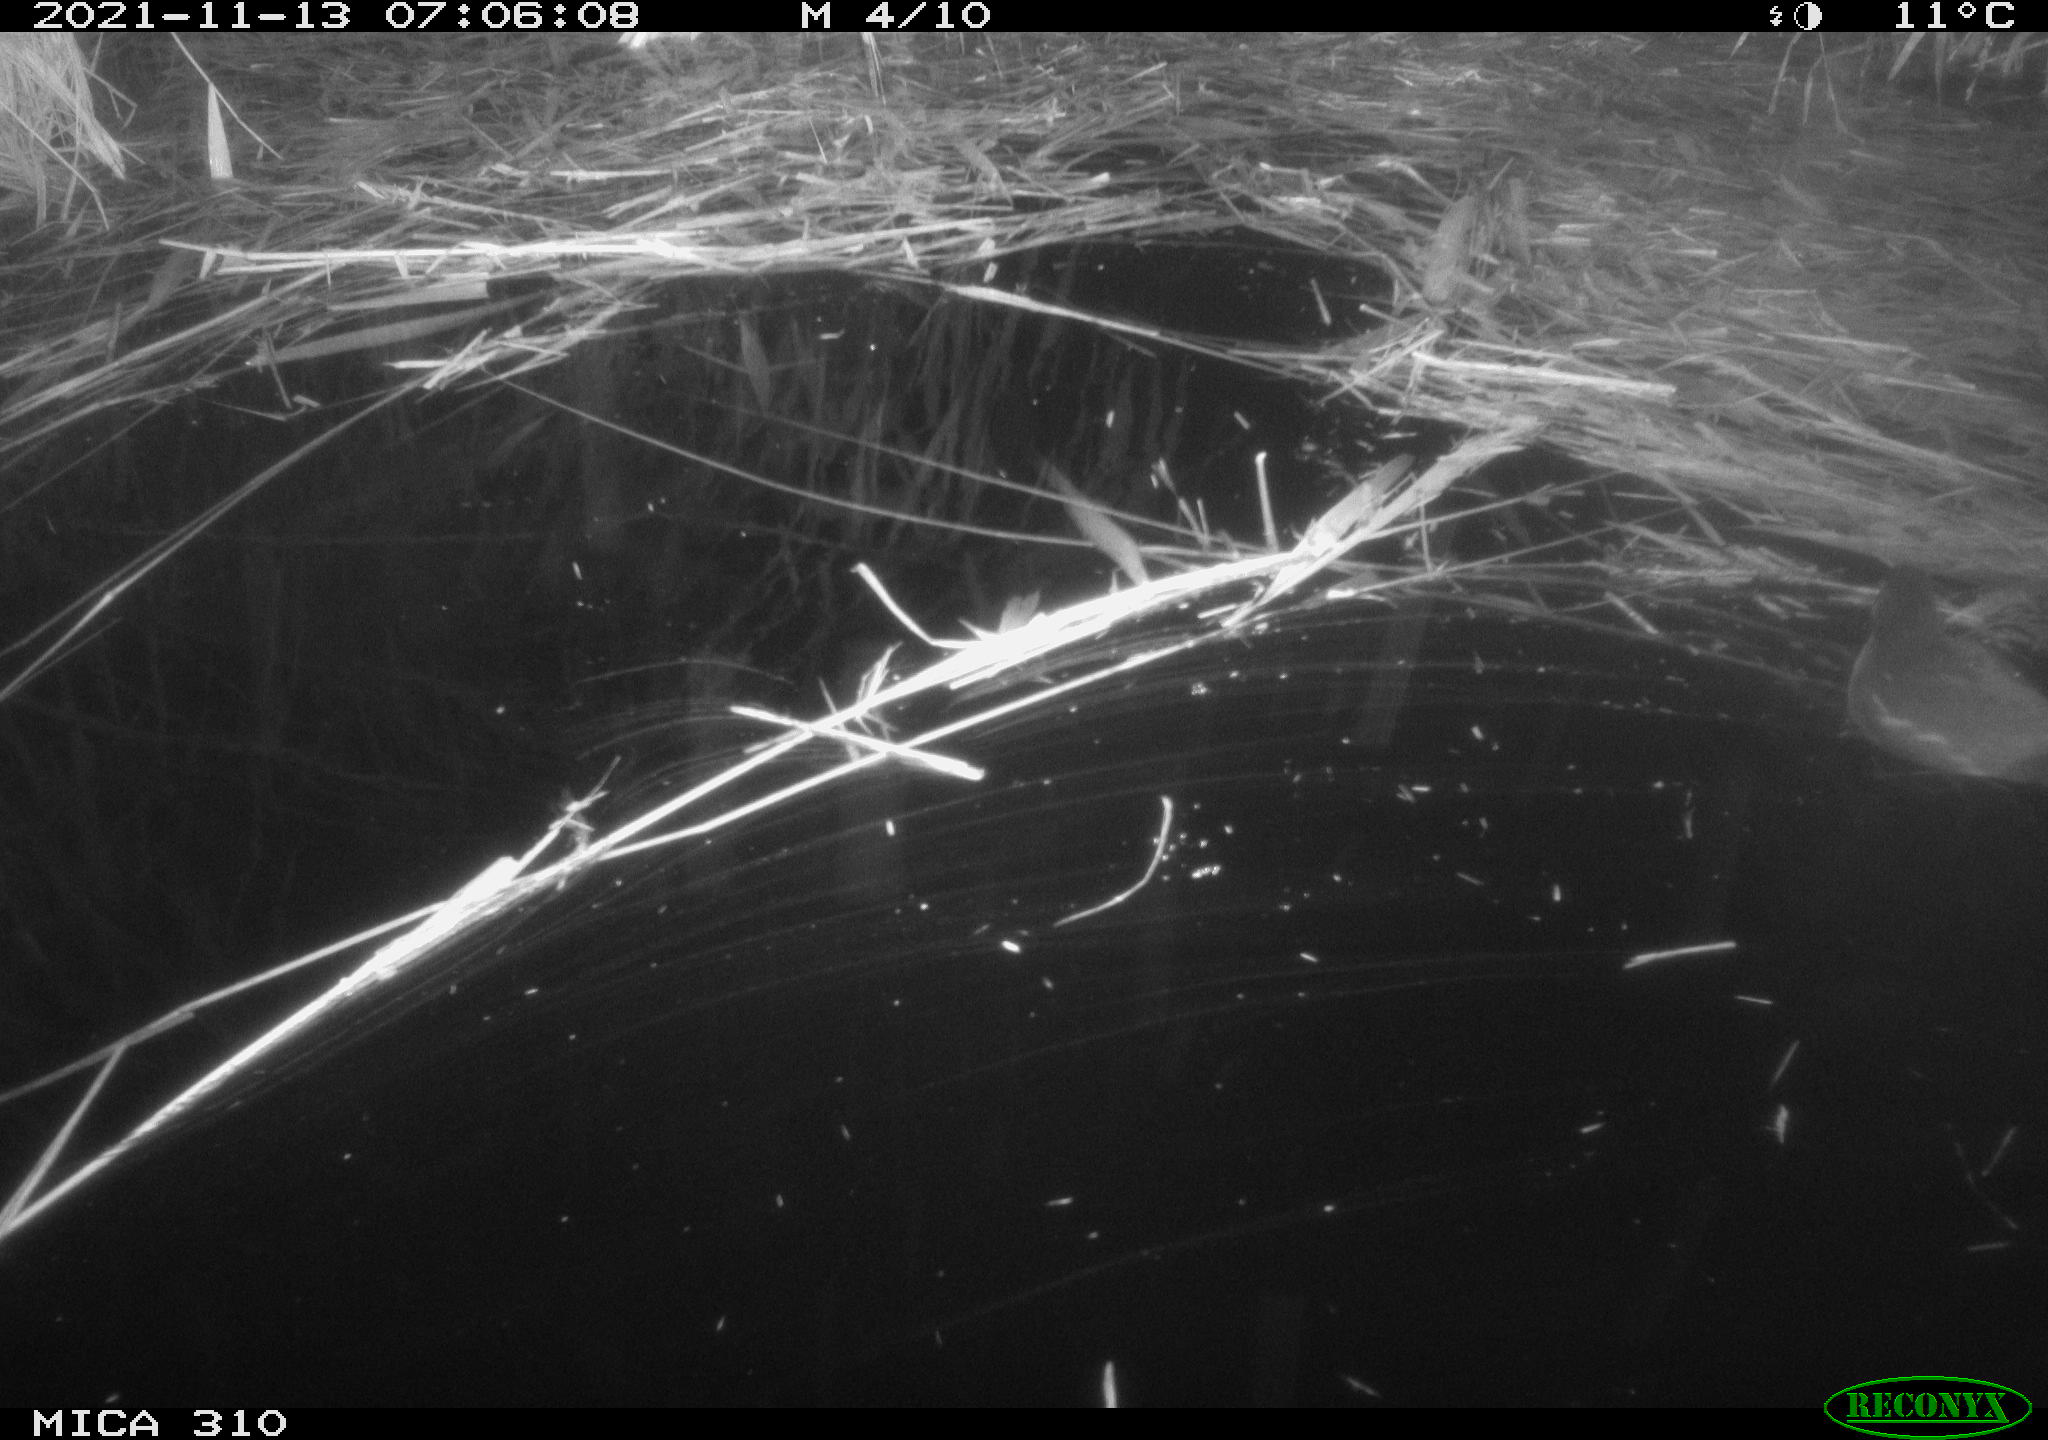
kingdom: Animalia
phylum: Chordata
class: Aves
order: Gruiformes
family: Rallidae
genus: Gallinula
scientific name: Gallinula chloropus
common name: Common moorhen
